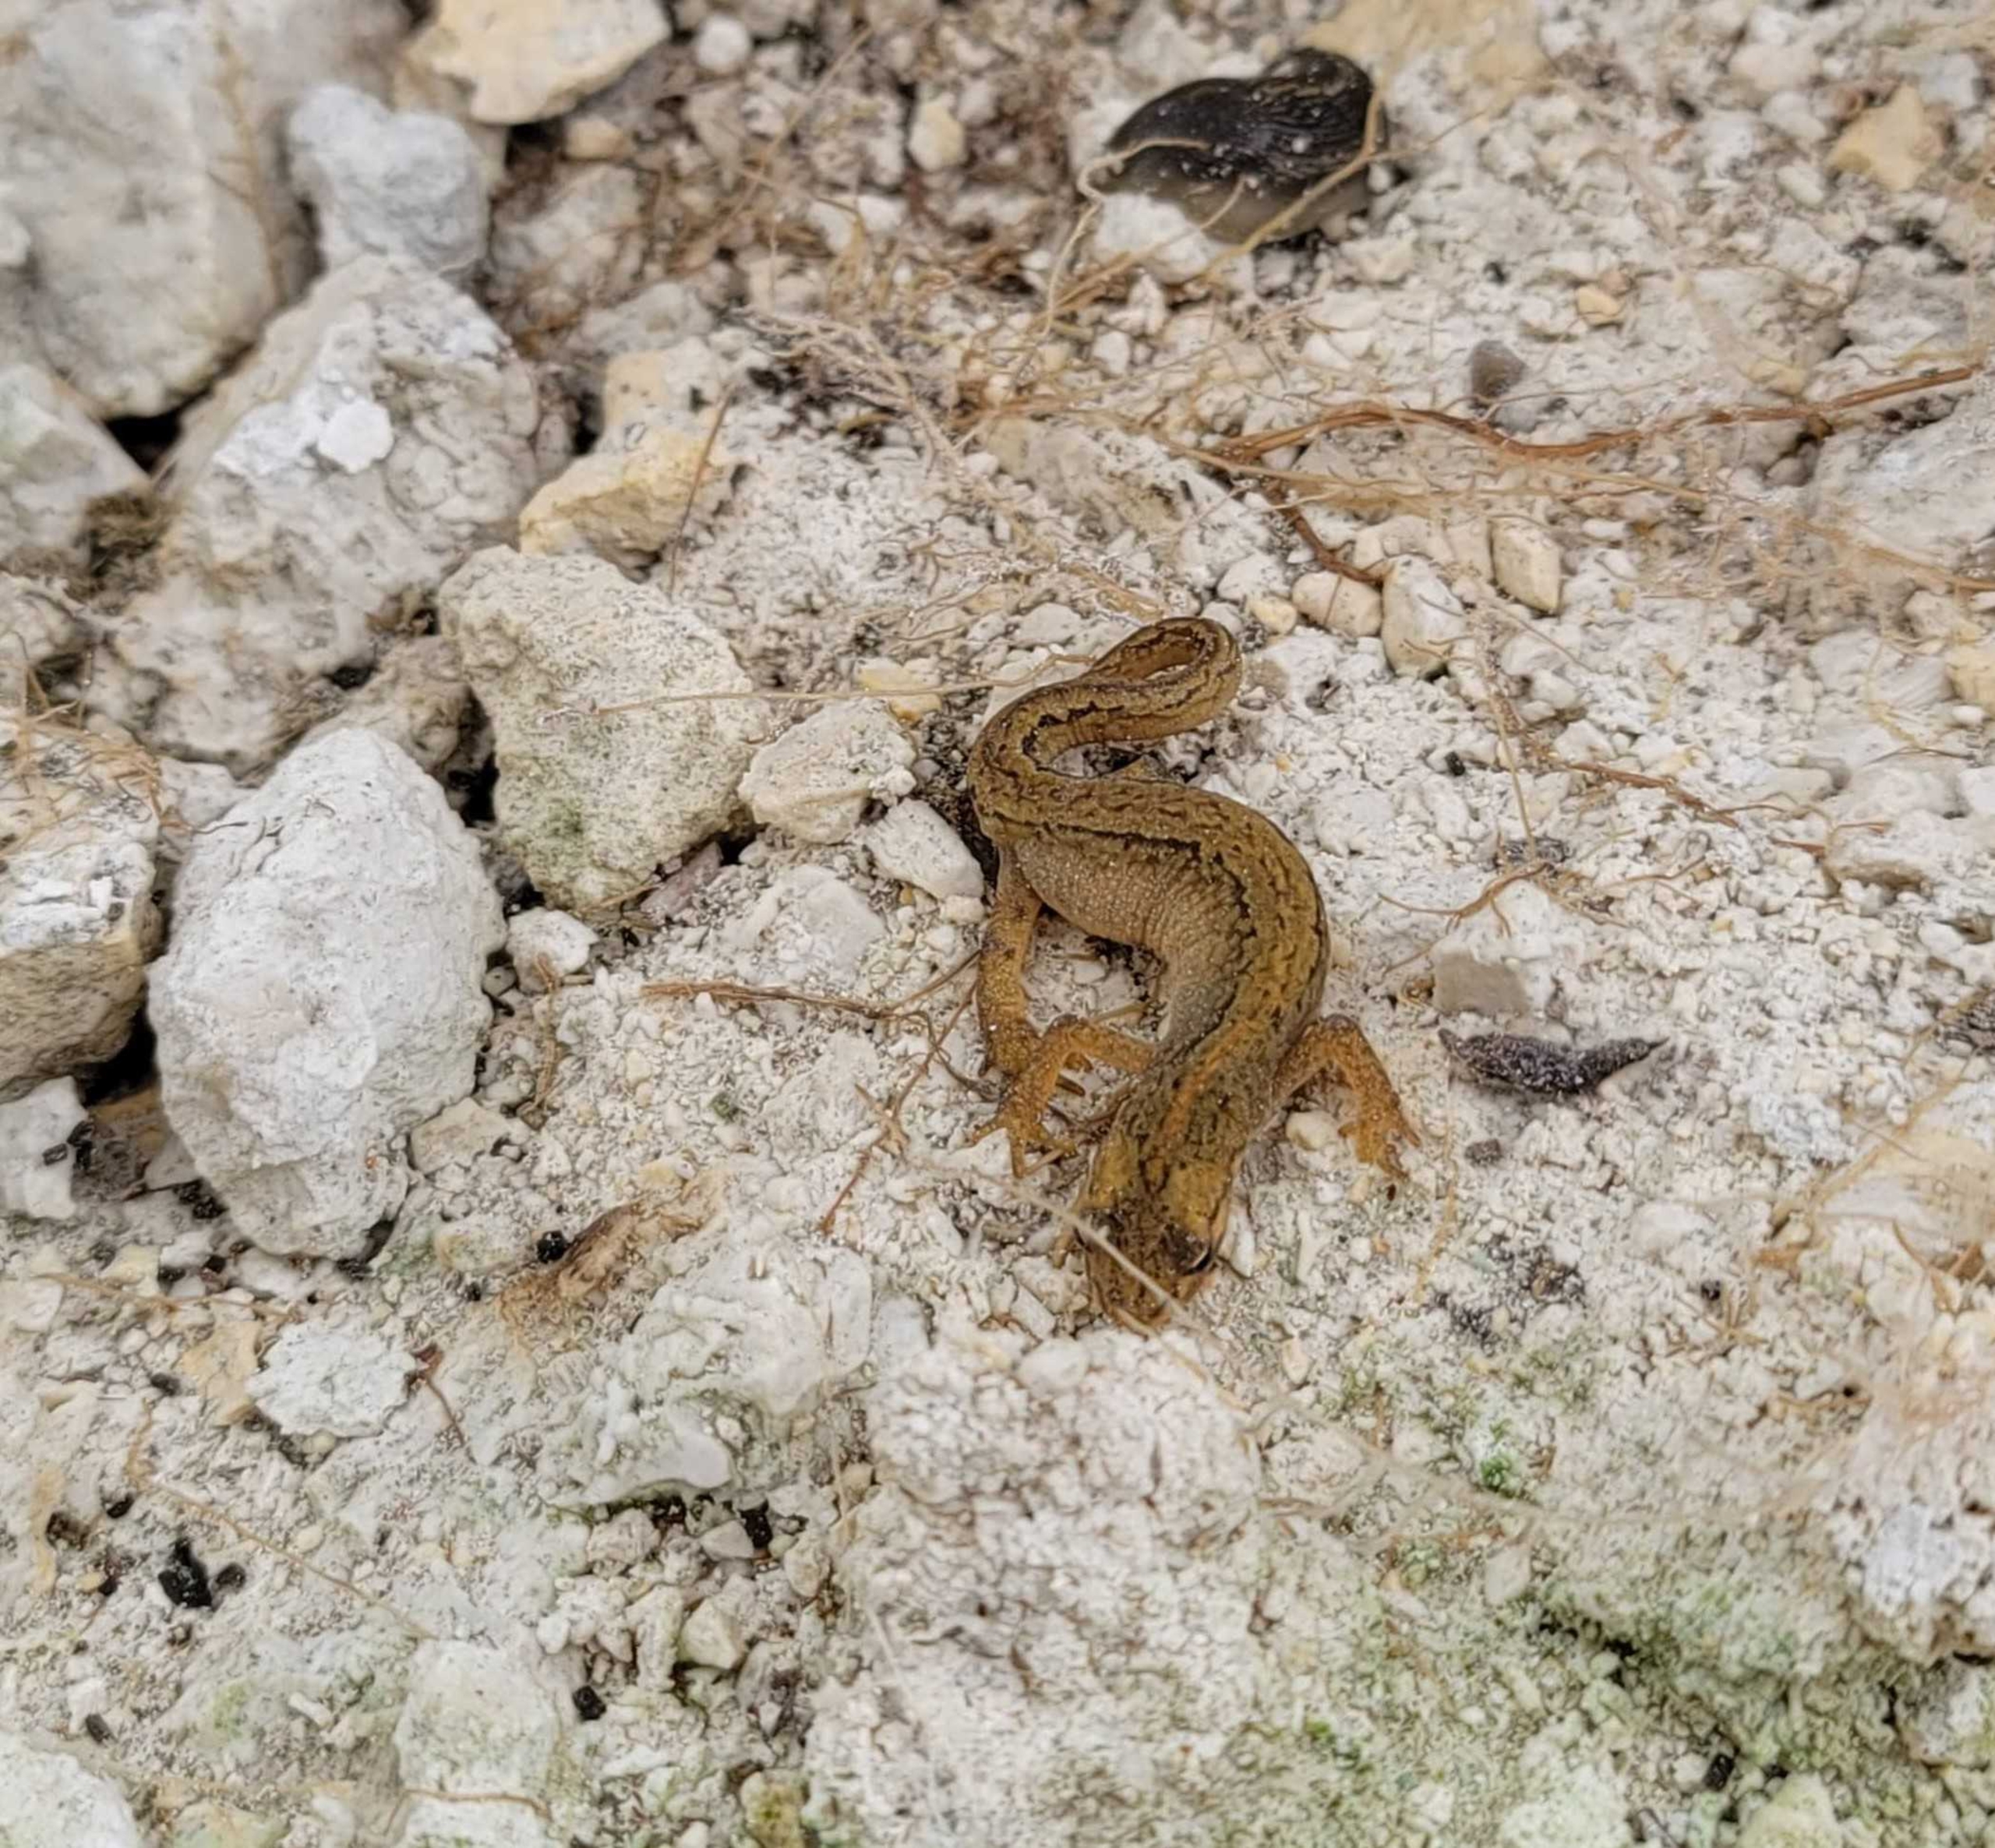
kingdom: Animalia
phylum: Chordata
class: Amphibia
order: Caudata
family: Salamandridae
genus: Lissotriton
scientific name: Lissotriton vulgaris
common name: Lille vandsalamander
